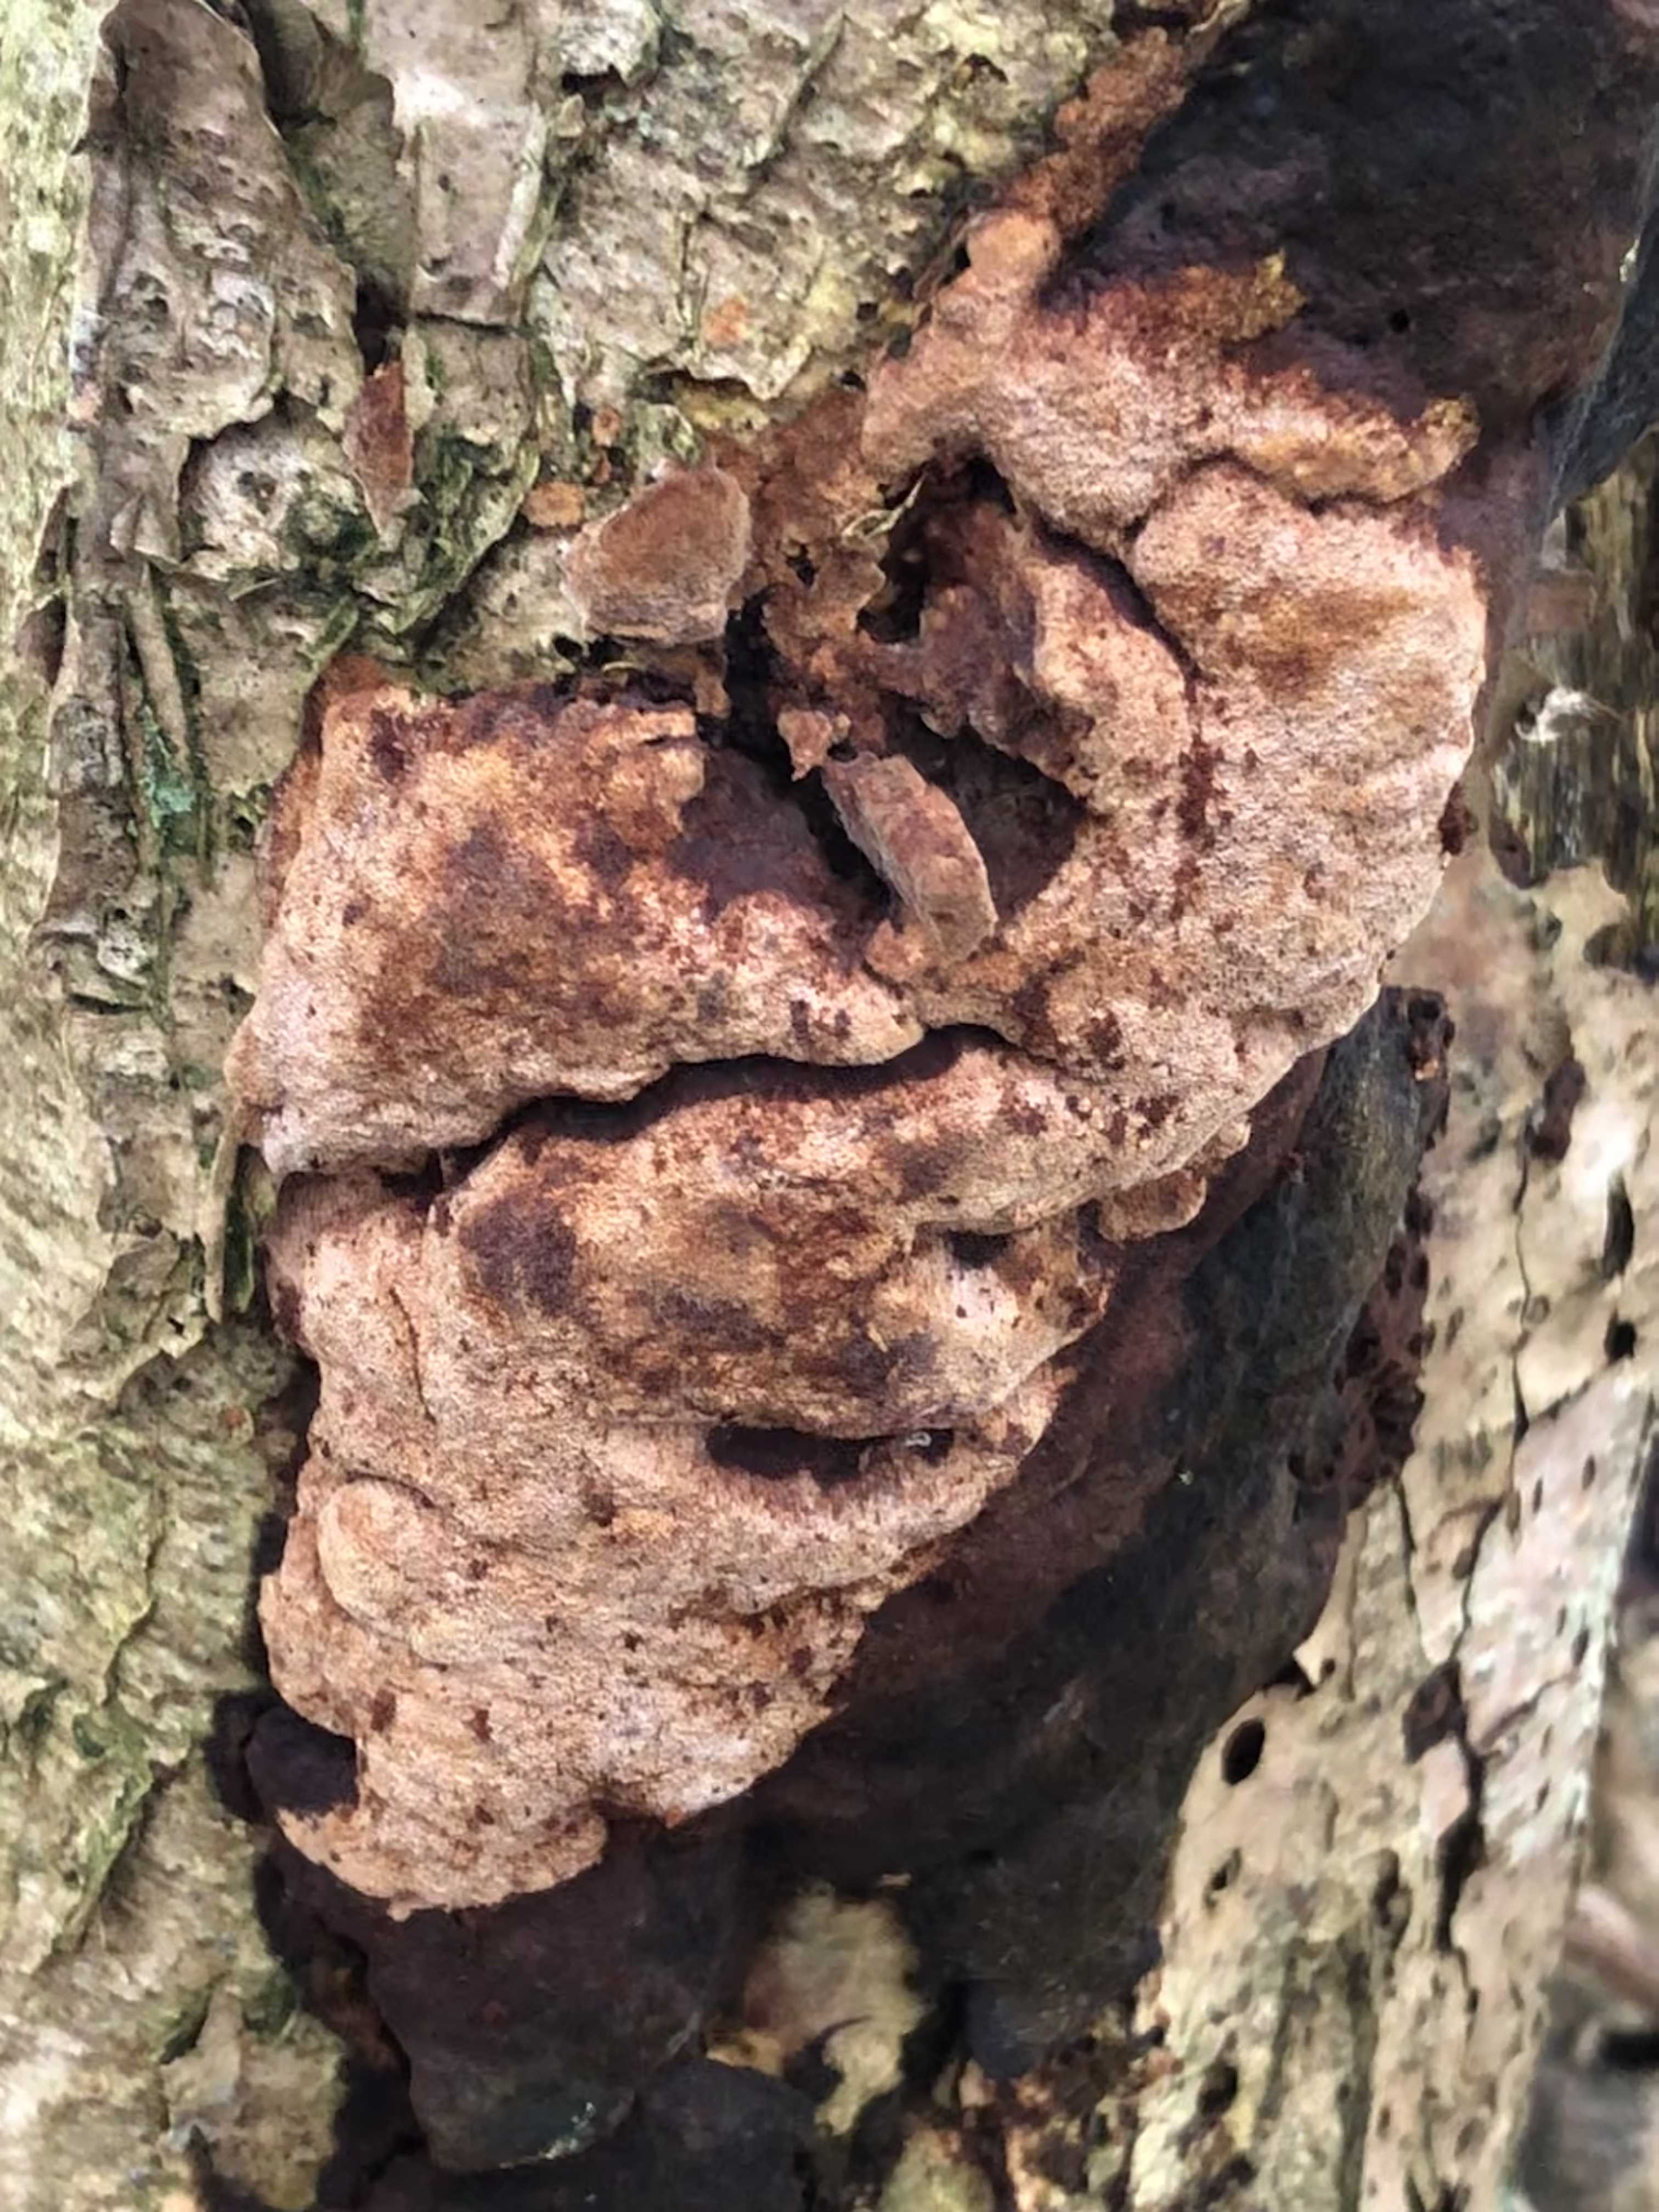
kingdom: Fungi
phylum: Basidiomycota
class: Agaricomycetes
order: Hymenochaetales
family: Hymenochaetaceae
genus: Fuscoporia
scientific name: Fuscoporia
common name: Ildporesvamp
